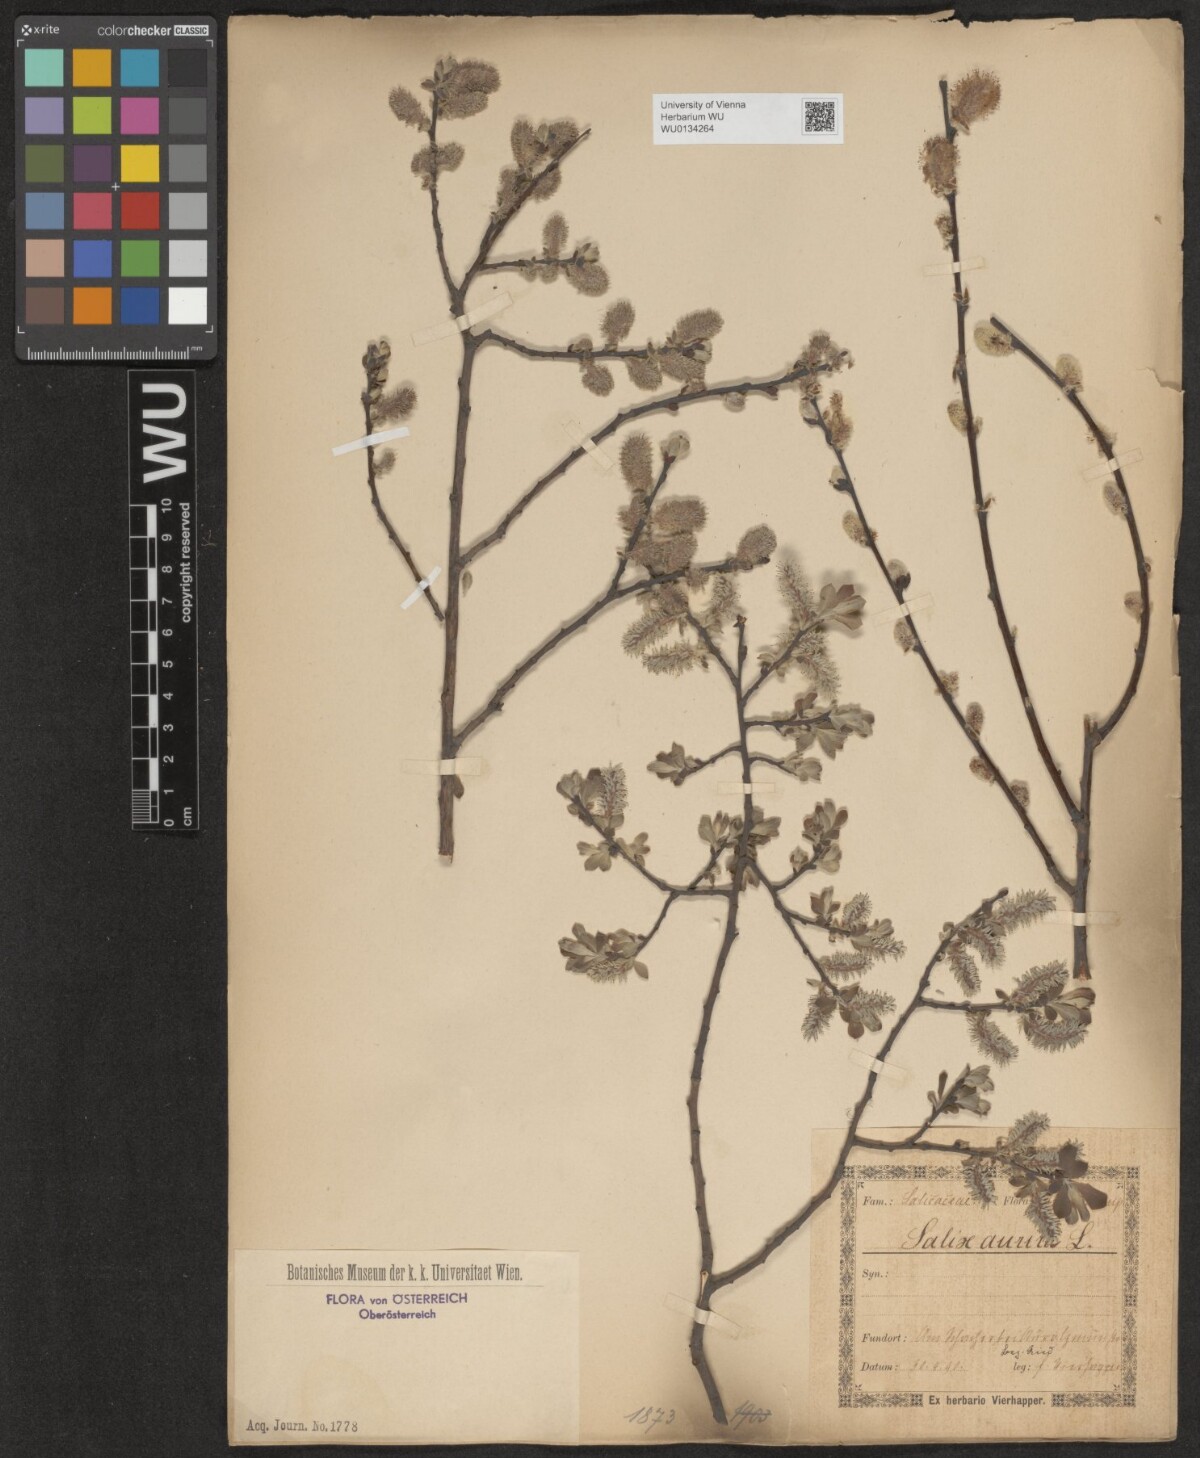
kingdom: Plantae
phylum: Tracheophyta
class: Magnoliopsida
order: Malpighiales
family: Salicaceae
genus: Salix
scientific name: Salix aurita
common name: Eared willow
